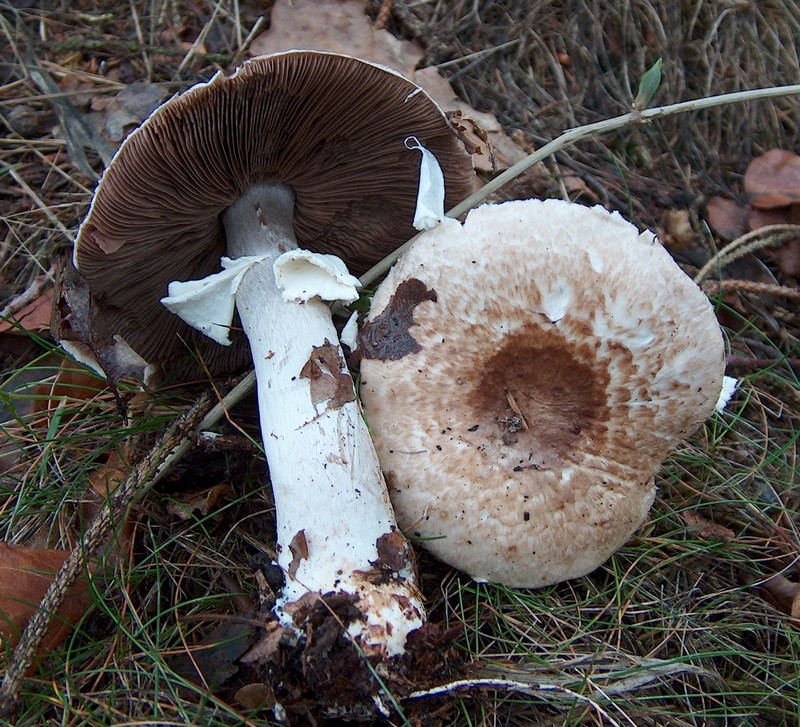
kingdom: Fungi
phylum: Basidiomycota
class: Agaricomycetes
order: Agaricales
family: Agaricaceae
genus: Agaricus
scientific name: Agaricus impudicus
